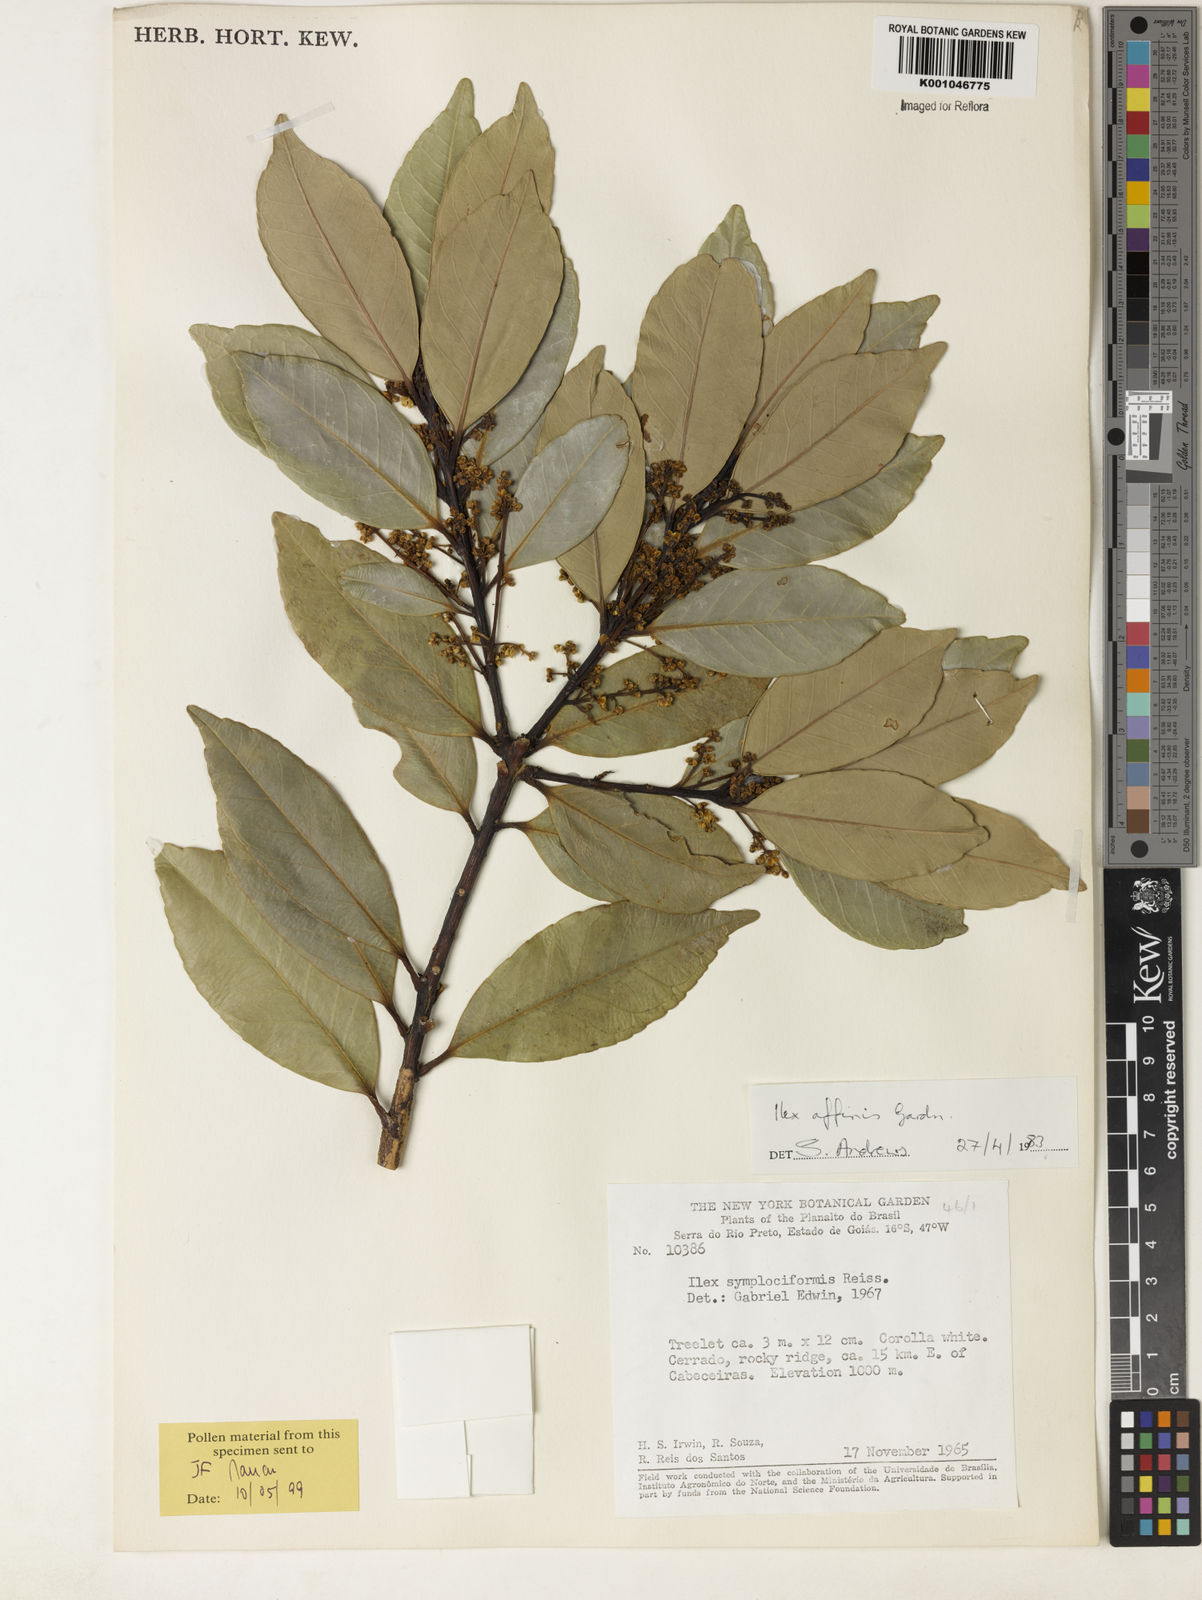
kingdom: Plantae
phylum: Tracheophyta
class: Magnoliopsida
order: Aquifoliales
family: Aquifoliaceae
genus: Ilex
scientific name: Ilex affinis
